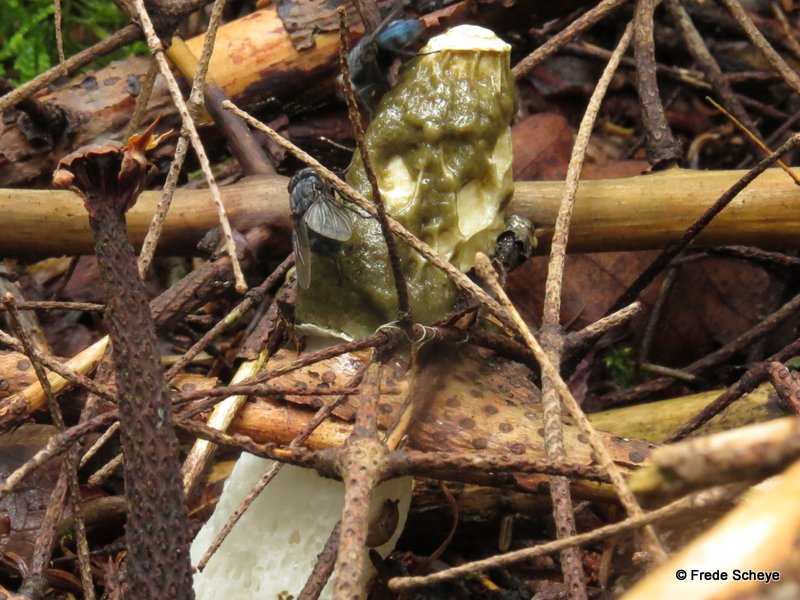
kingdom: Fungi
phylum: Basidiomycota
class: Agaricomycetes
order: Phallales
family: Phallaceae
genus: Phallus
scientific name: Phallus impudicus
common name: almindelig stinksvamp
